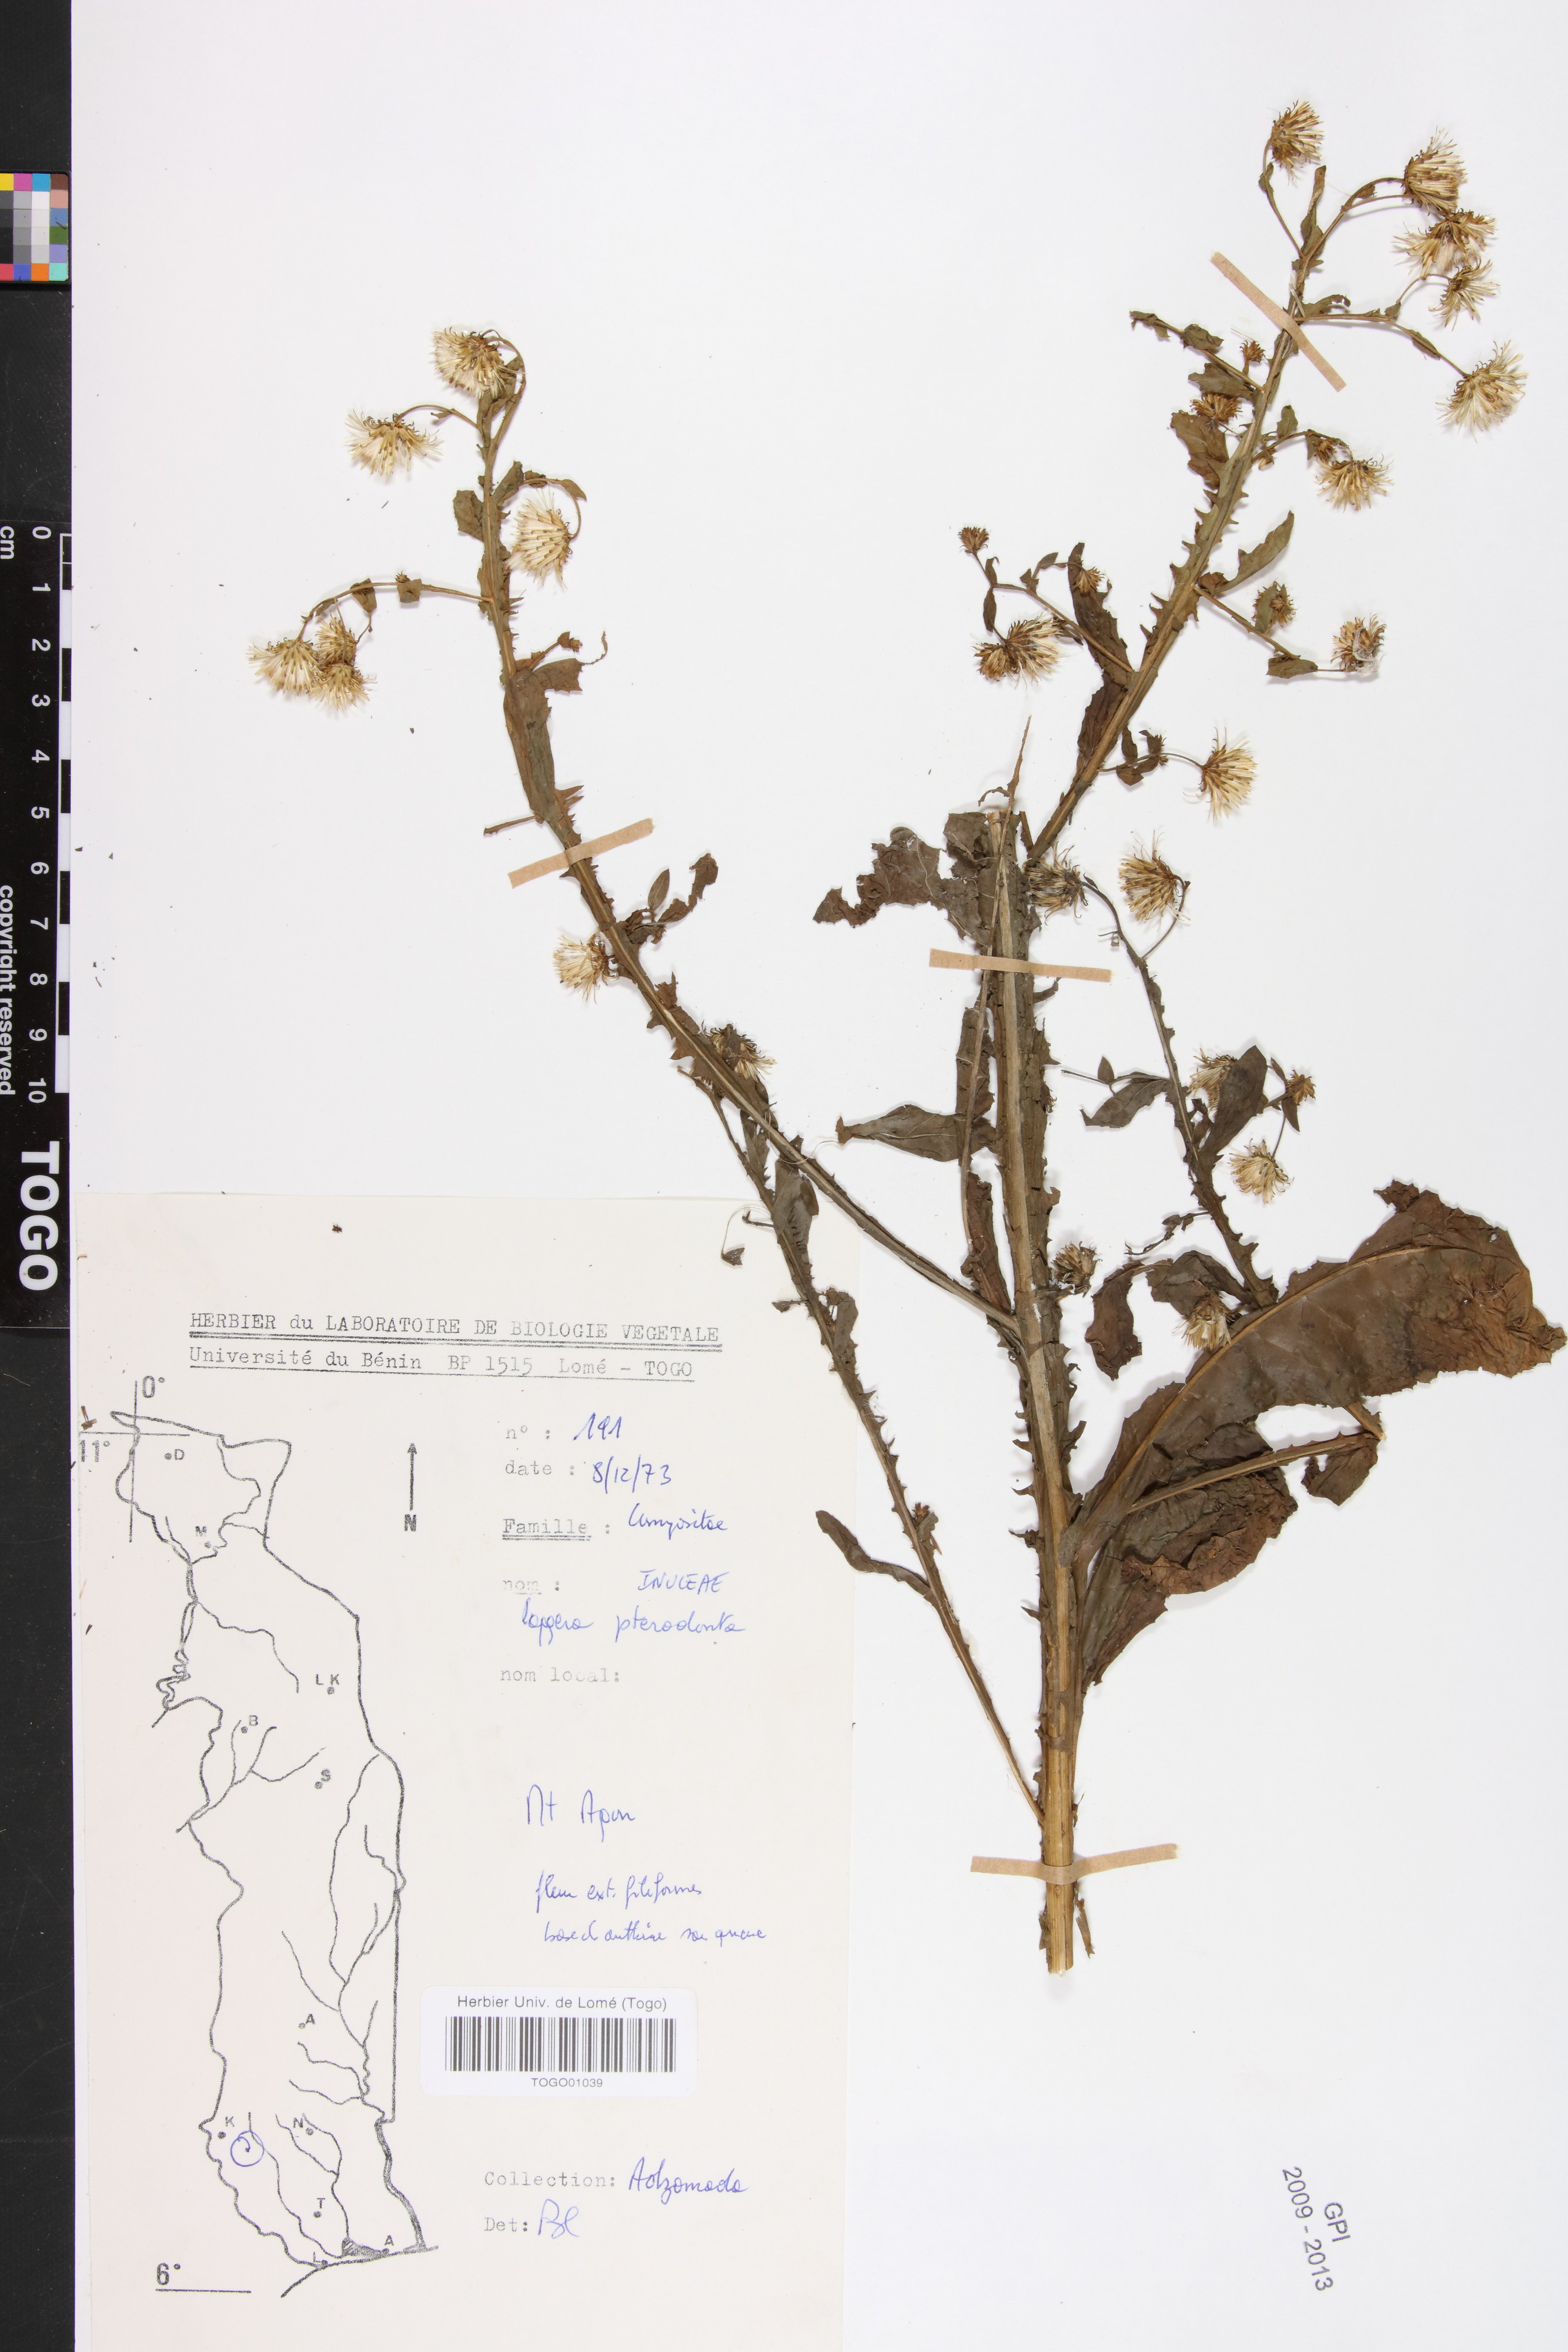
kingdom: Plantae
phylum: Tracheophyta
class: Magnoliopsida
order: Asterales
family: Asteraceae
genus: Laggera
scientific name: Laggera crispata
